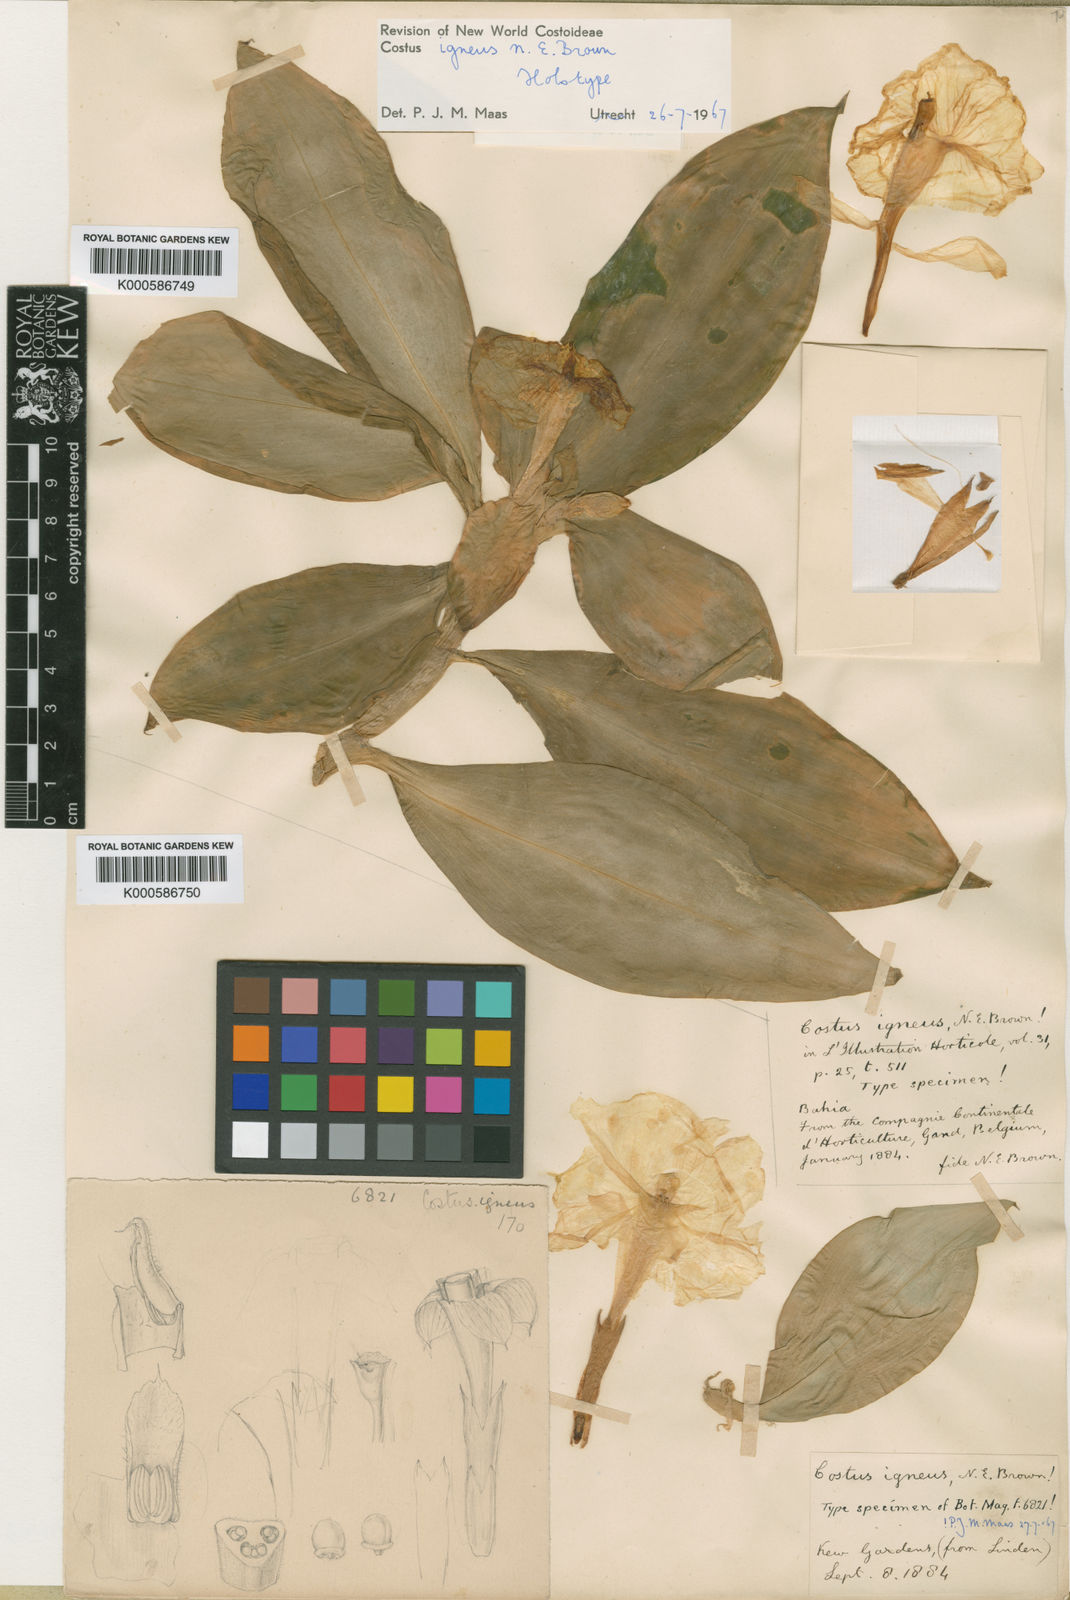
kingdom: Plantae
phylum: Tracheophyta
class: Liliopsida
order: Zingiberales
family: Costaceae
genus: Chamaecostus
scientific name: Chamaecostus cuspidatus
